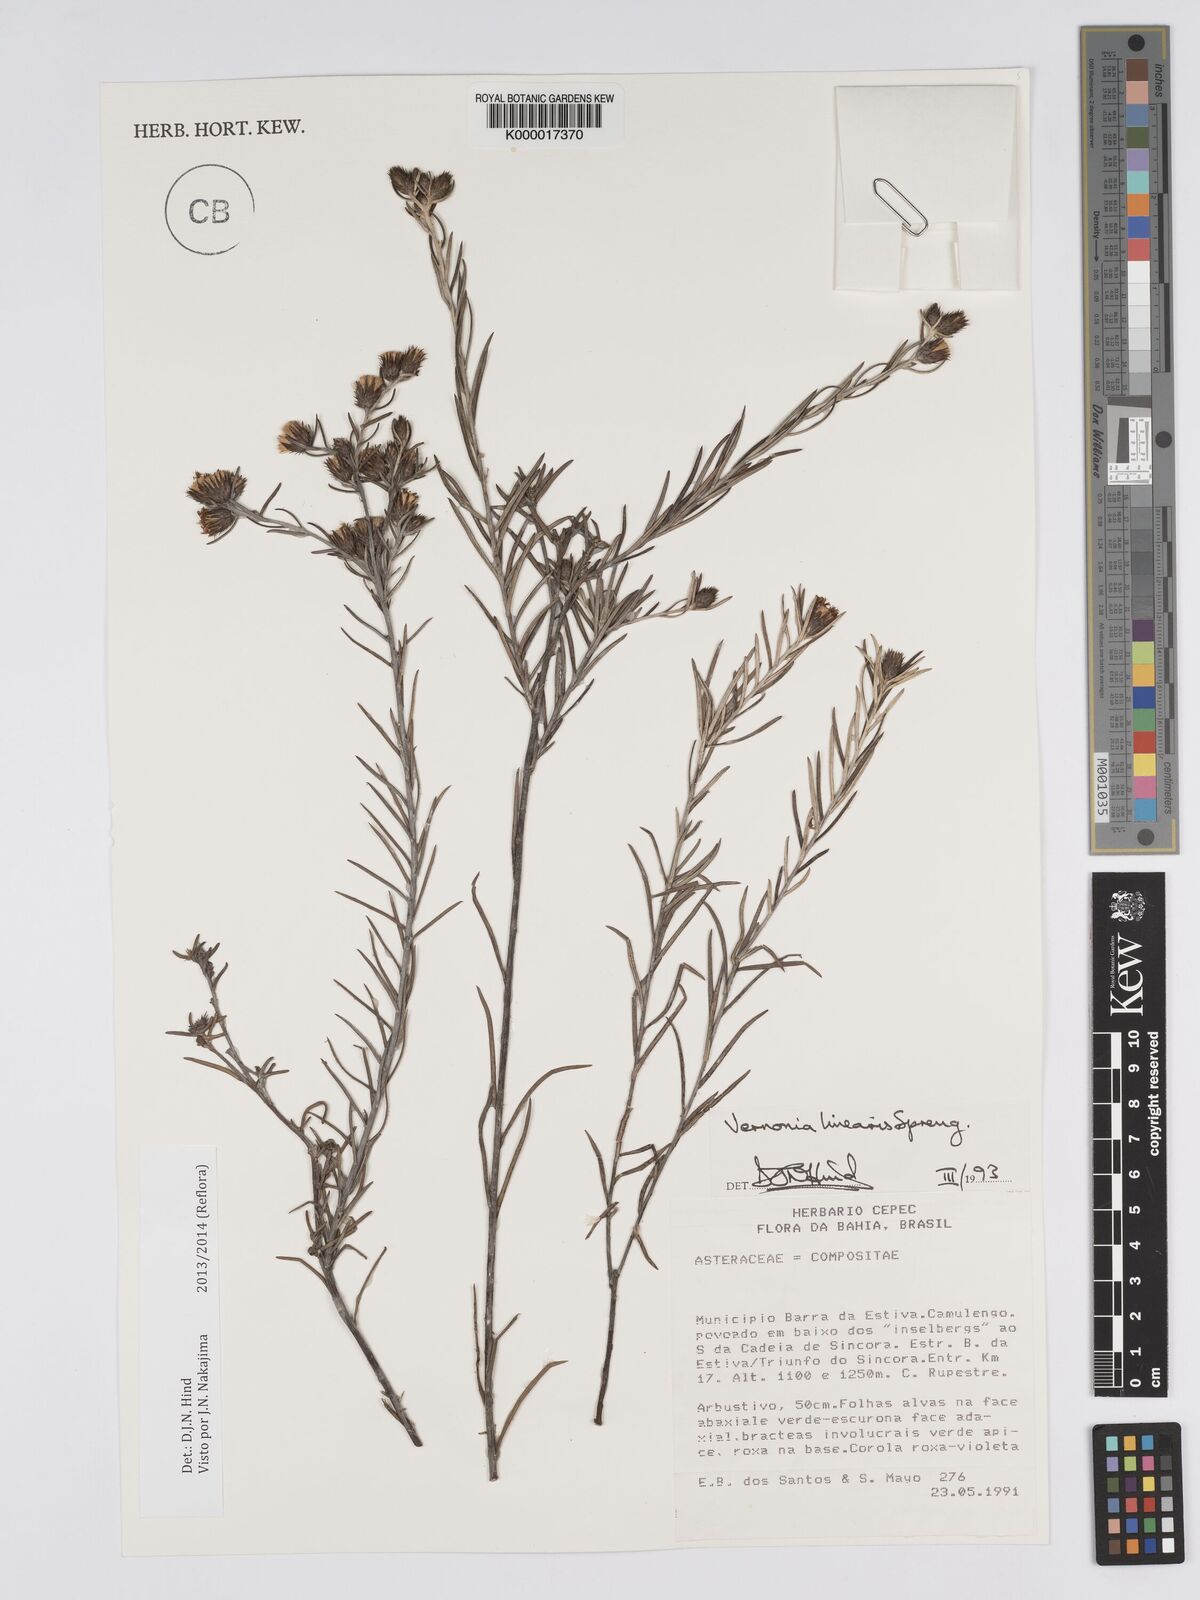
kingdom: Plantae
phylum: Tracheophyta
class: Magnoliopsida
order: Asterales
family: Asteraceae
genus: Lessingianthus
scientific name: Lessingianthus linearis
